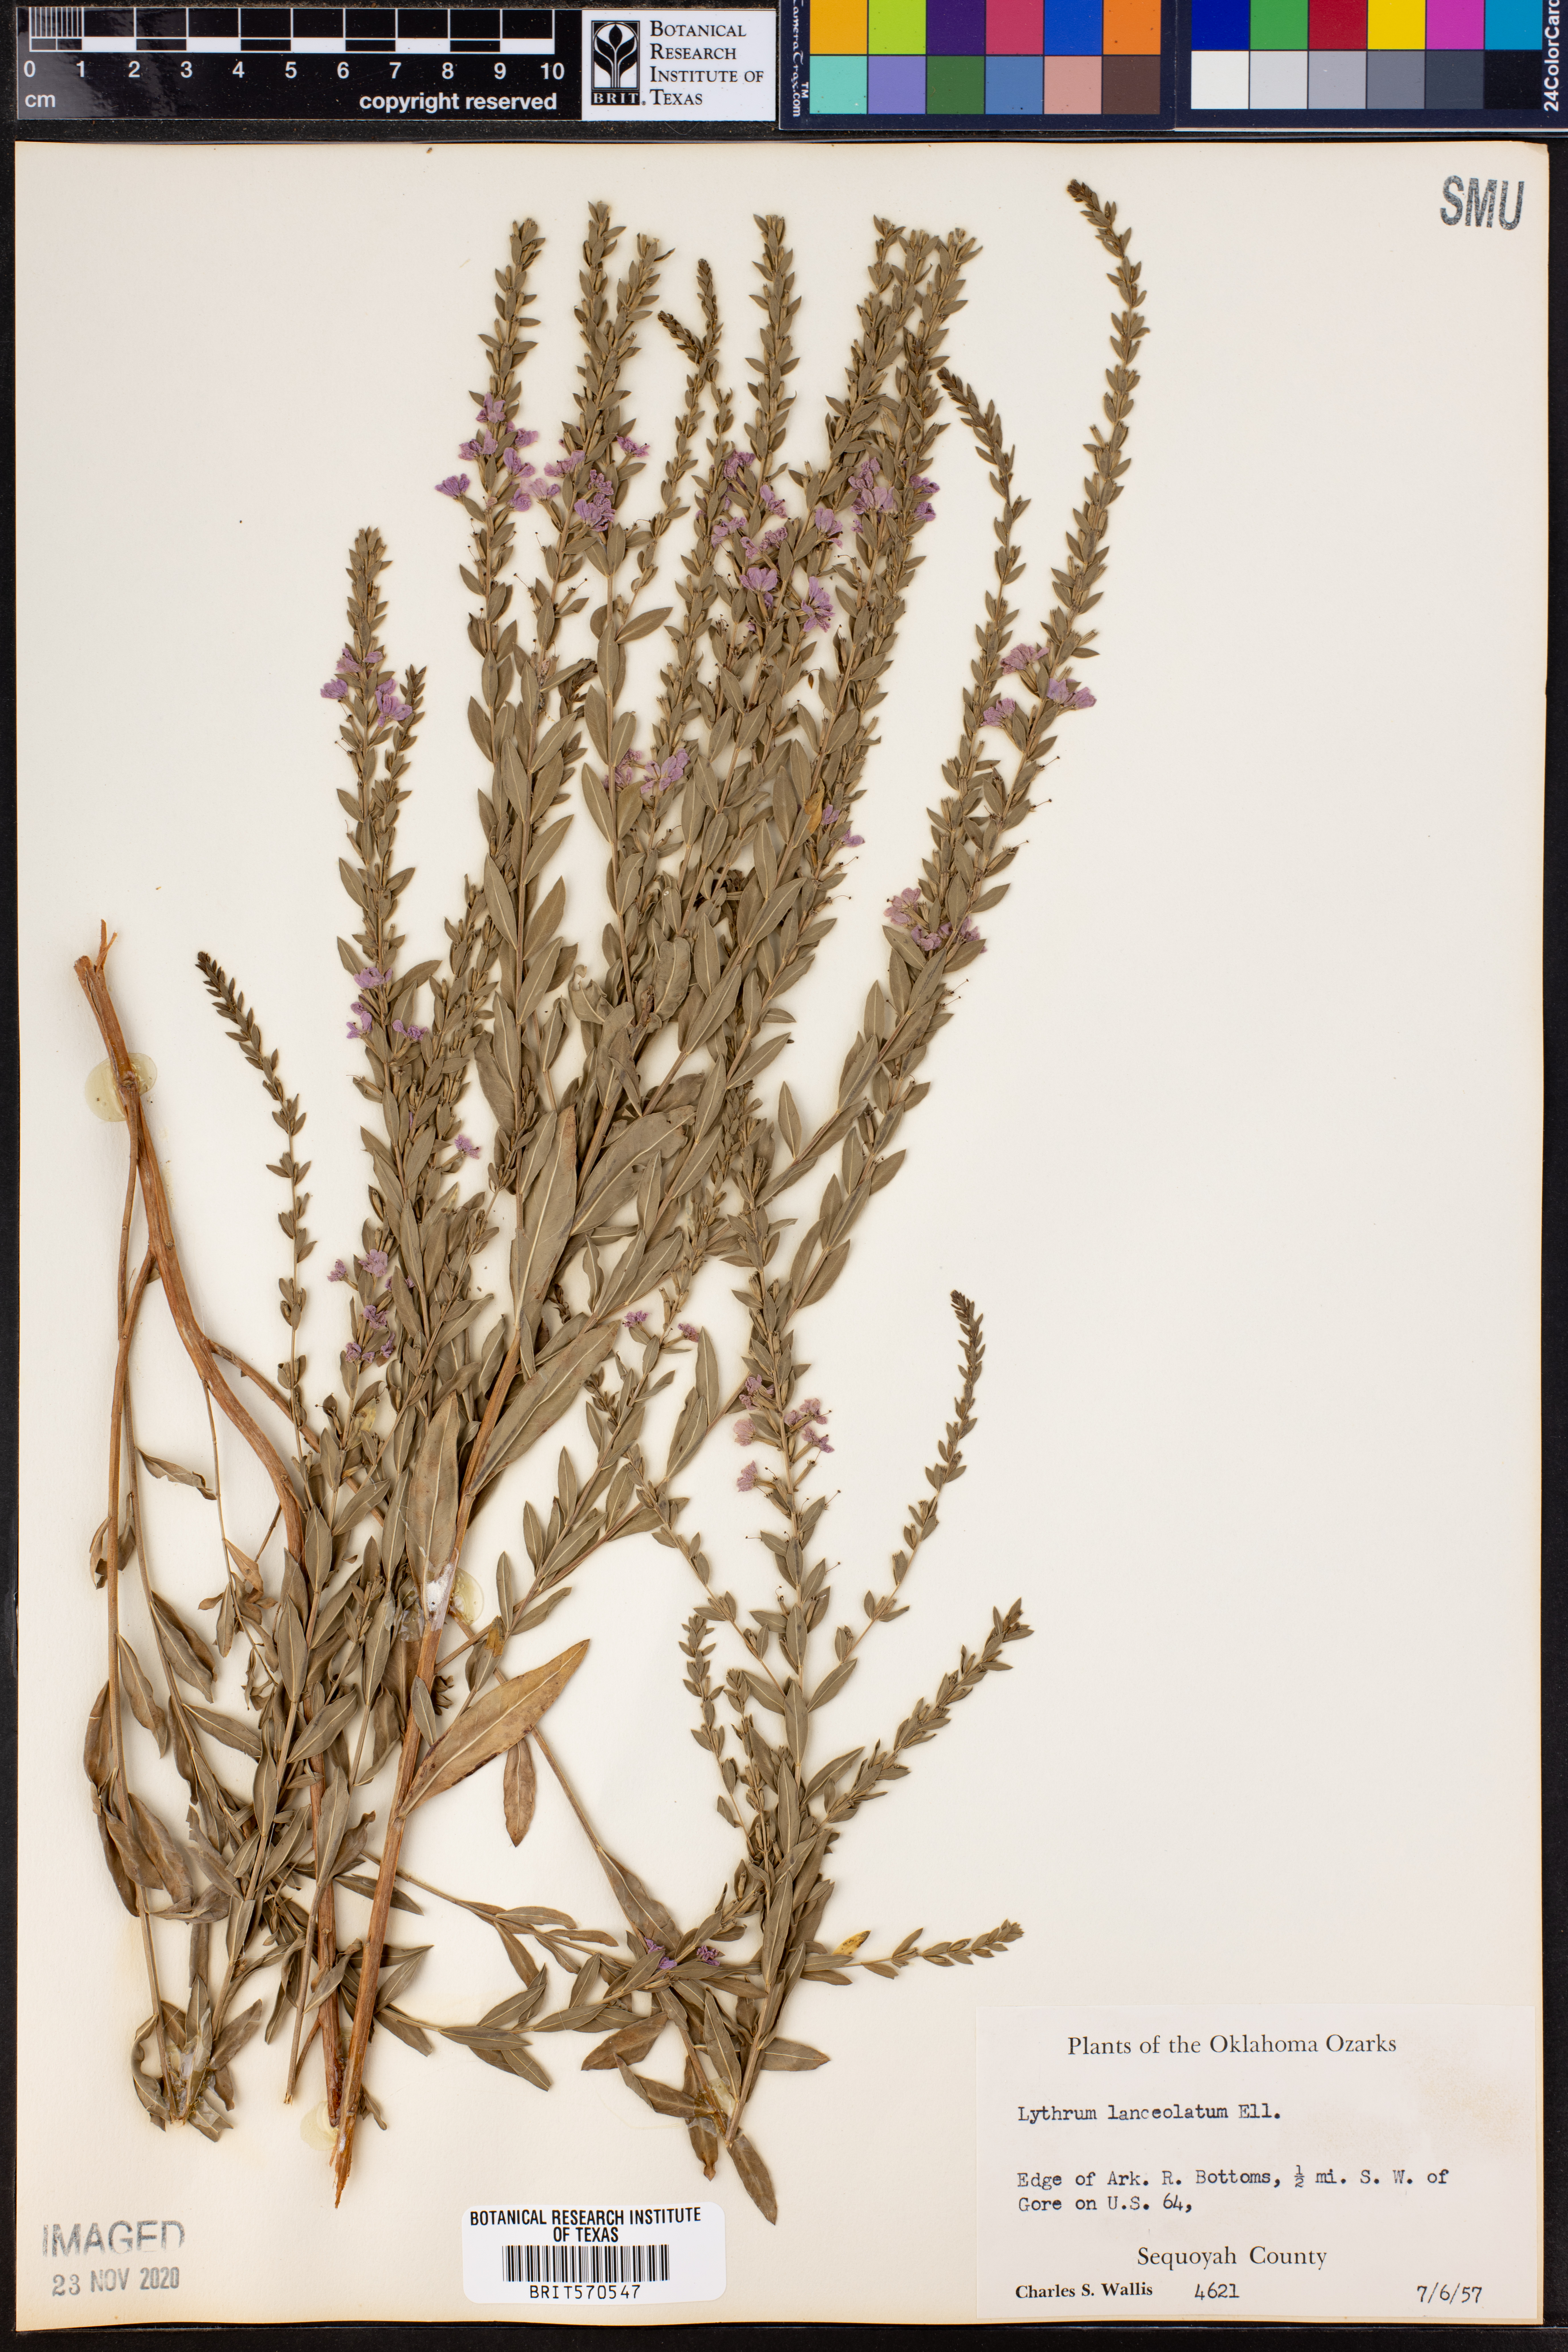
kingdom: Plantae
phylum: Tracheophyta
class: Magnoliopsida
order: Myrtales
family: Lythraceae
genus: Lythrum
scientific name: Lythrum alatum
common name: Winged loosestrife
